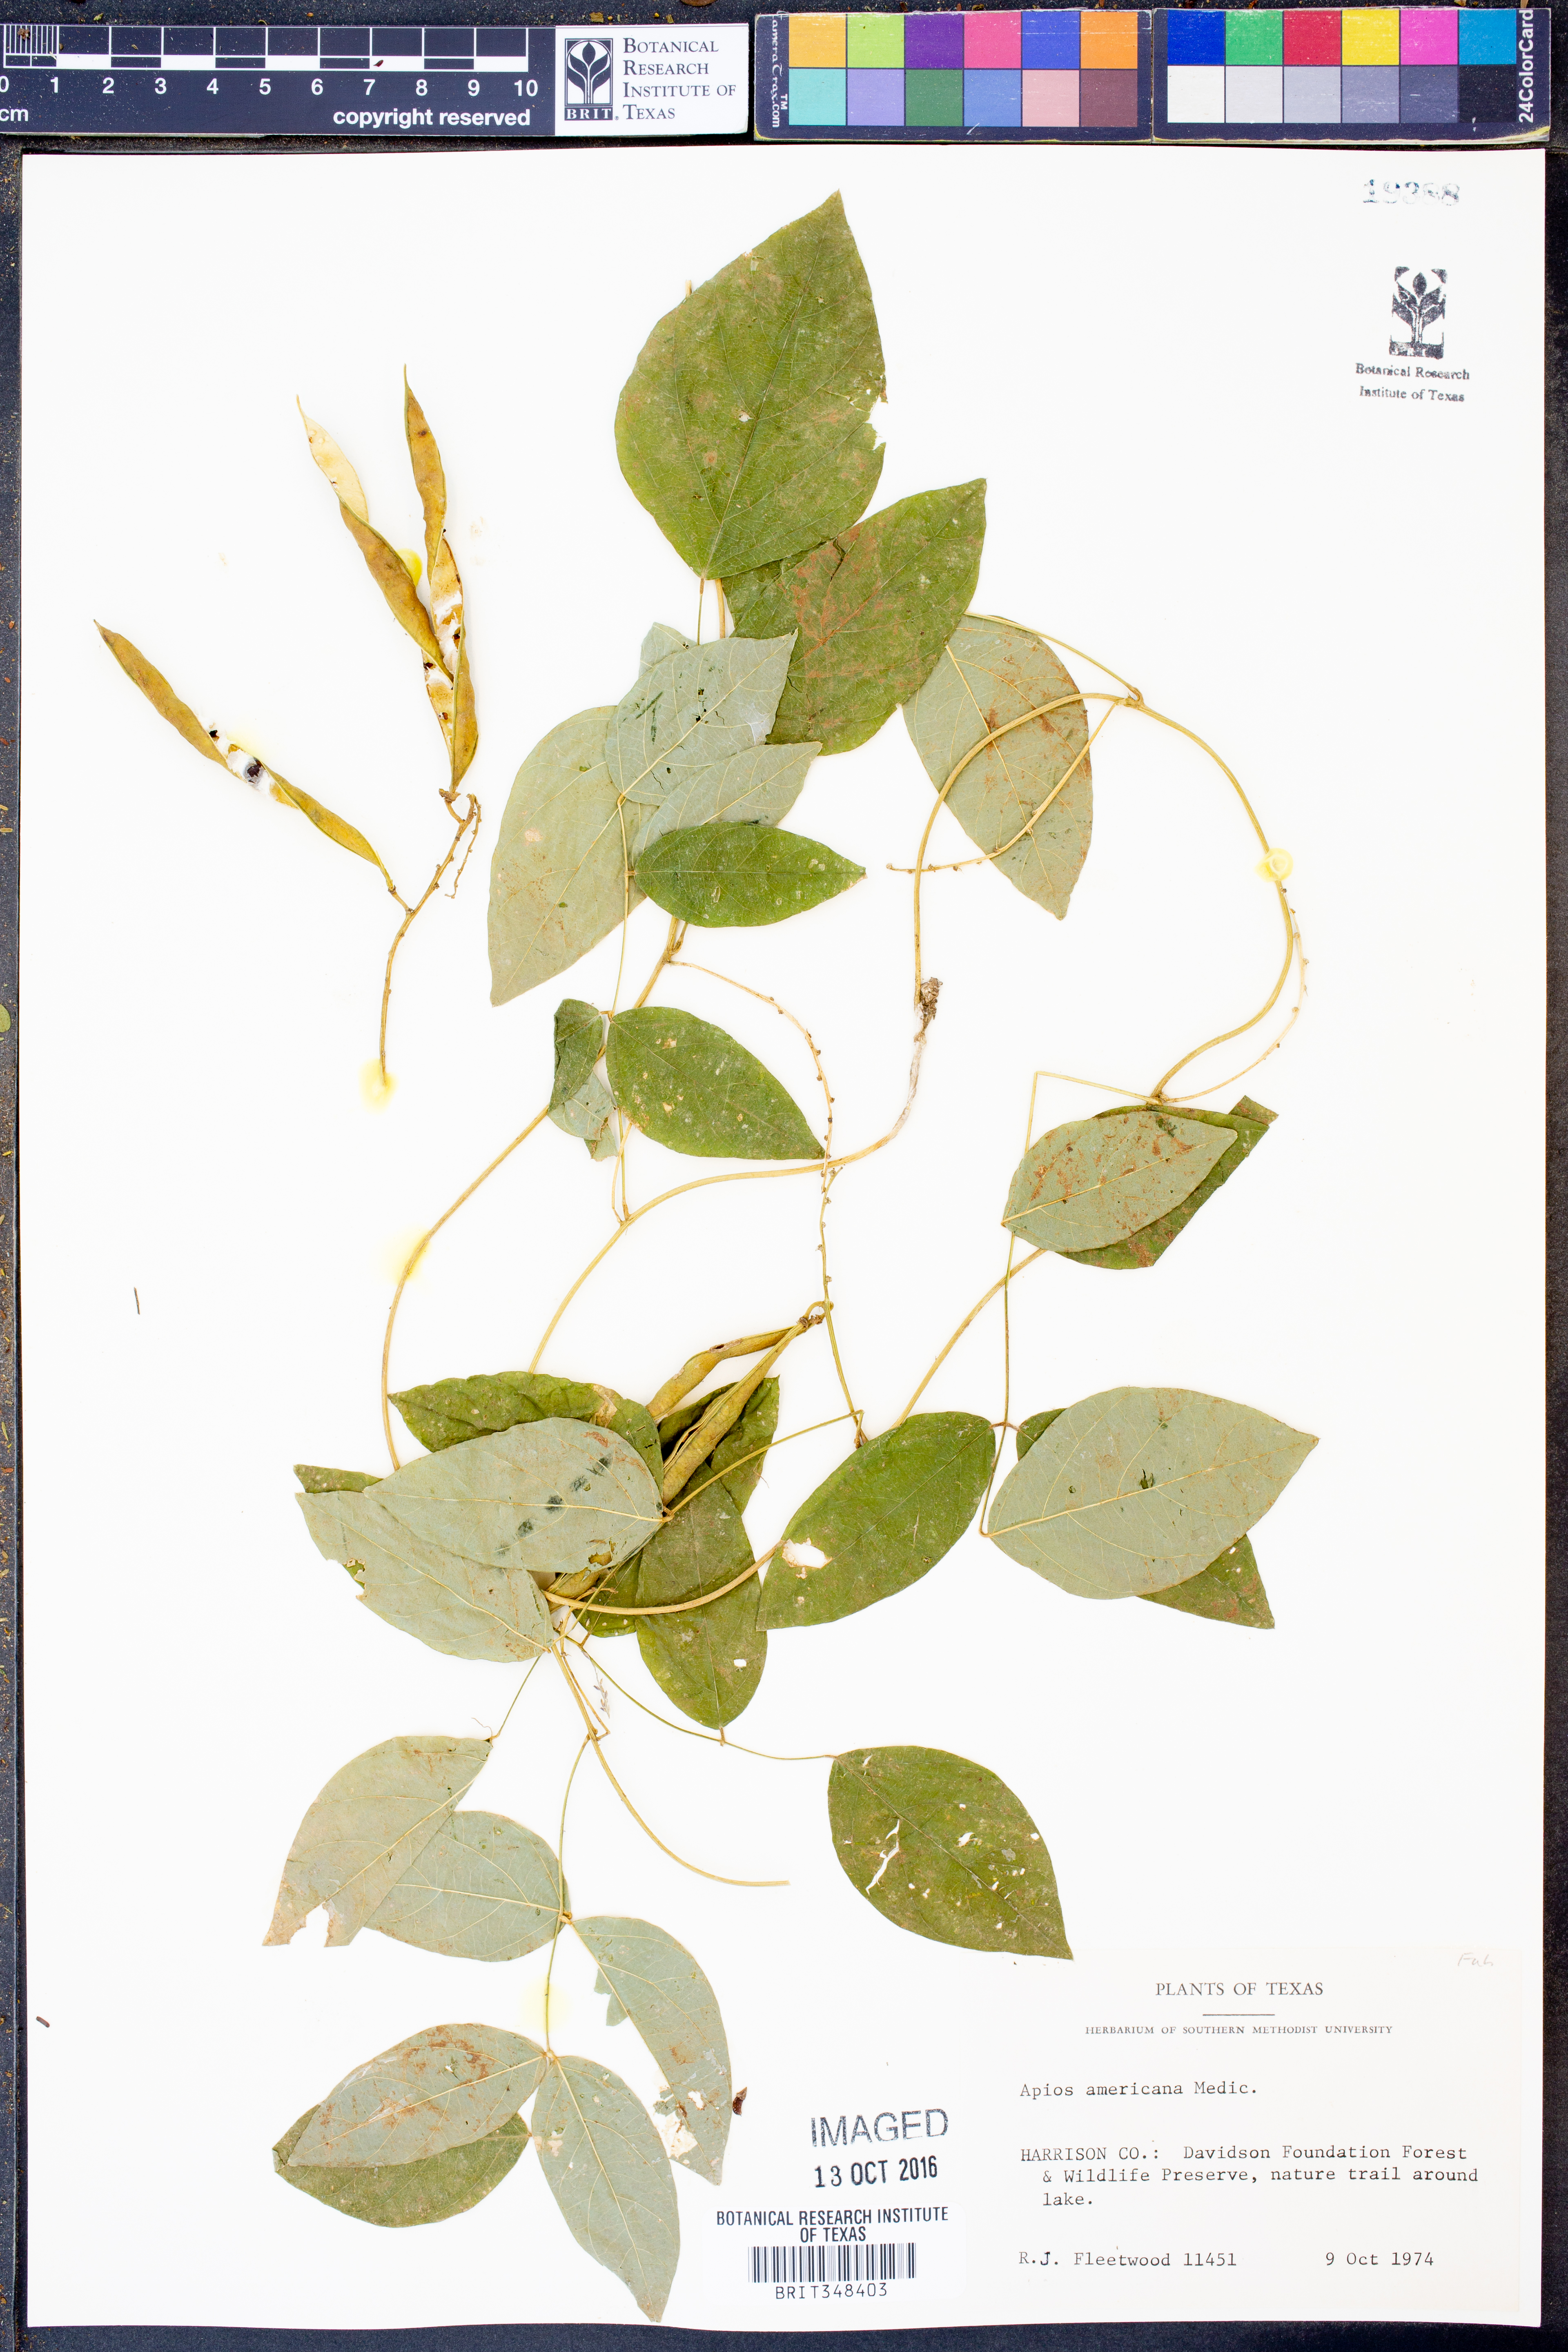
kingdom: Plantae
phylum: Tracheophyta
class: Magnoliopsida
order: Fabales
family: Fabaceae
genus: Apios
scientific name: Apios americana
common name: American potato-bean
